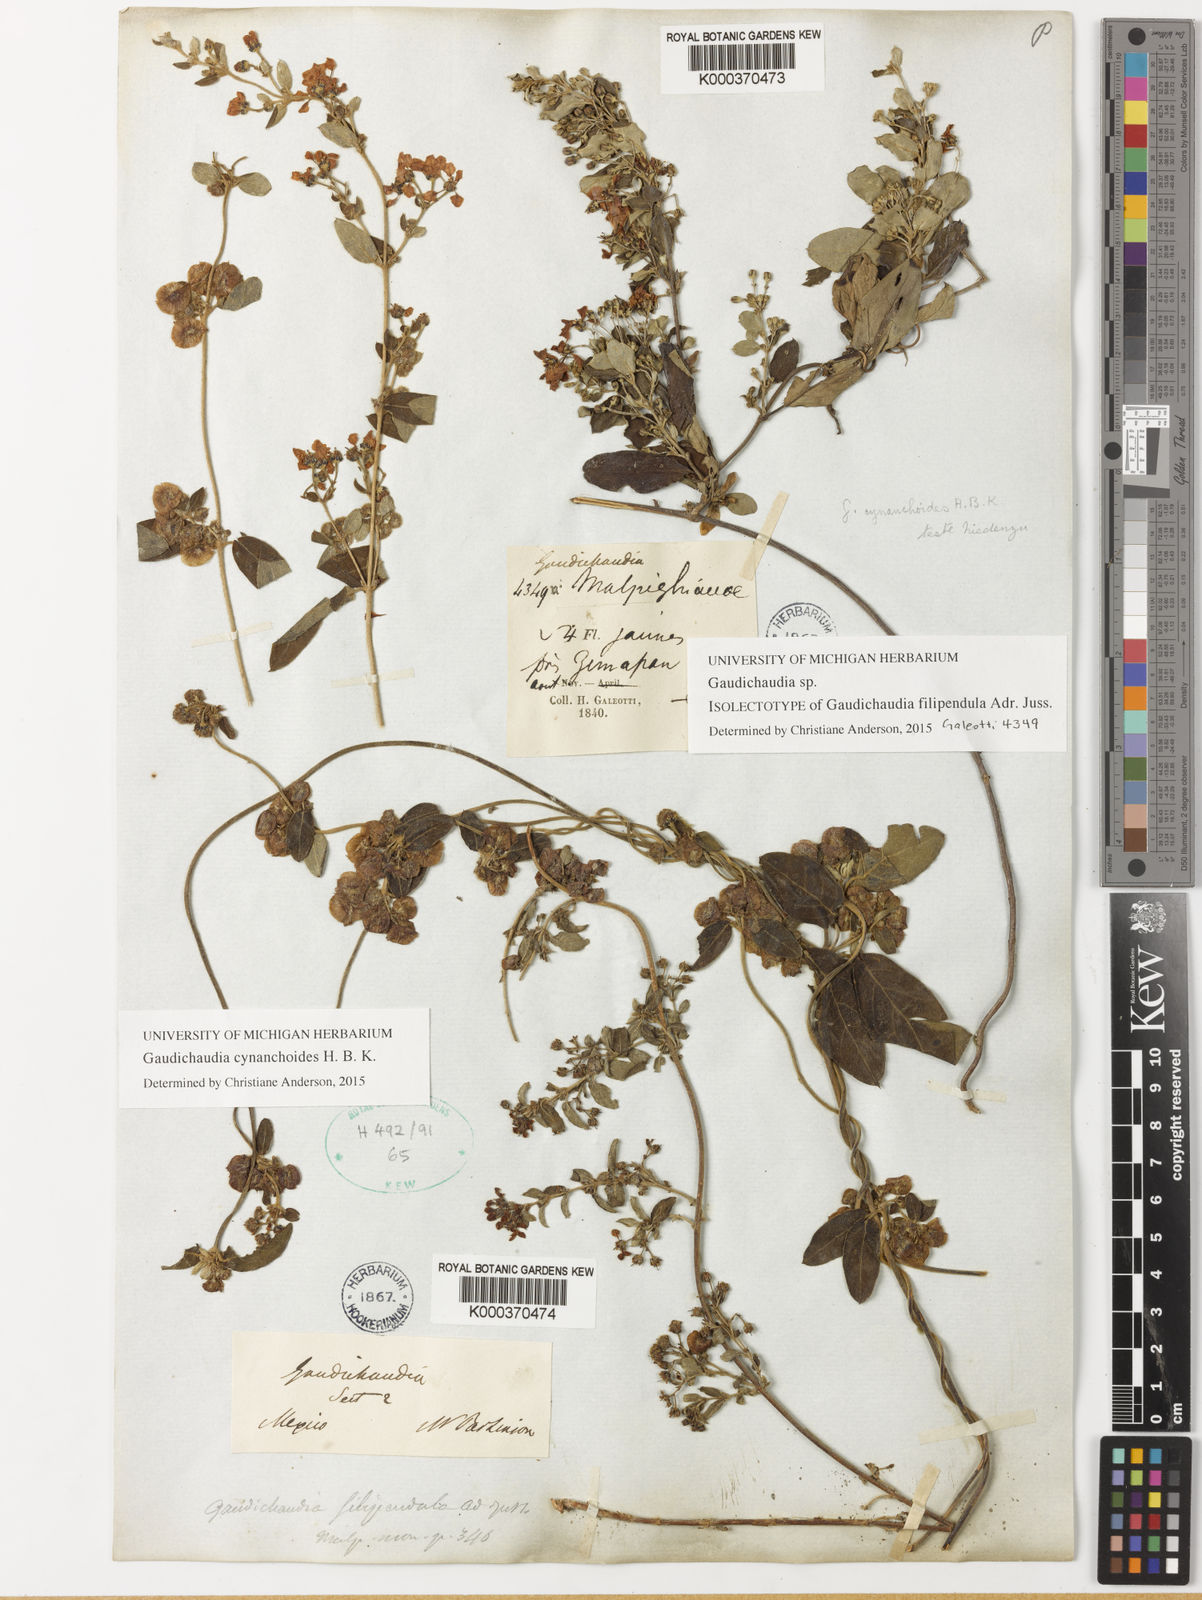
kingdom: Plantae
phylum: Tracheophyta
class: Magnoliopsida
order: Malpighiales
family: Malpighiaceae
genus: Gaudichaudia
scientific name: Gaudichaudia cynanchoides
